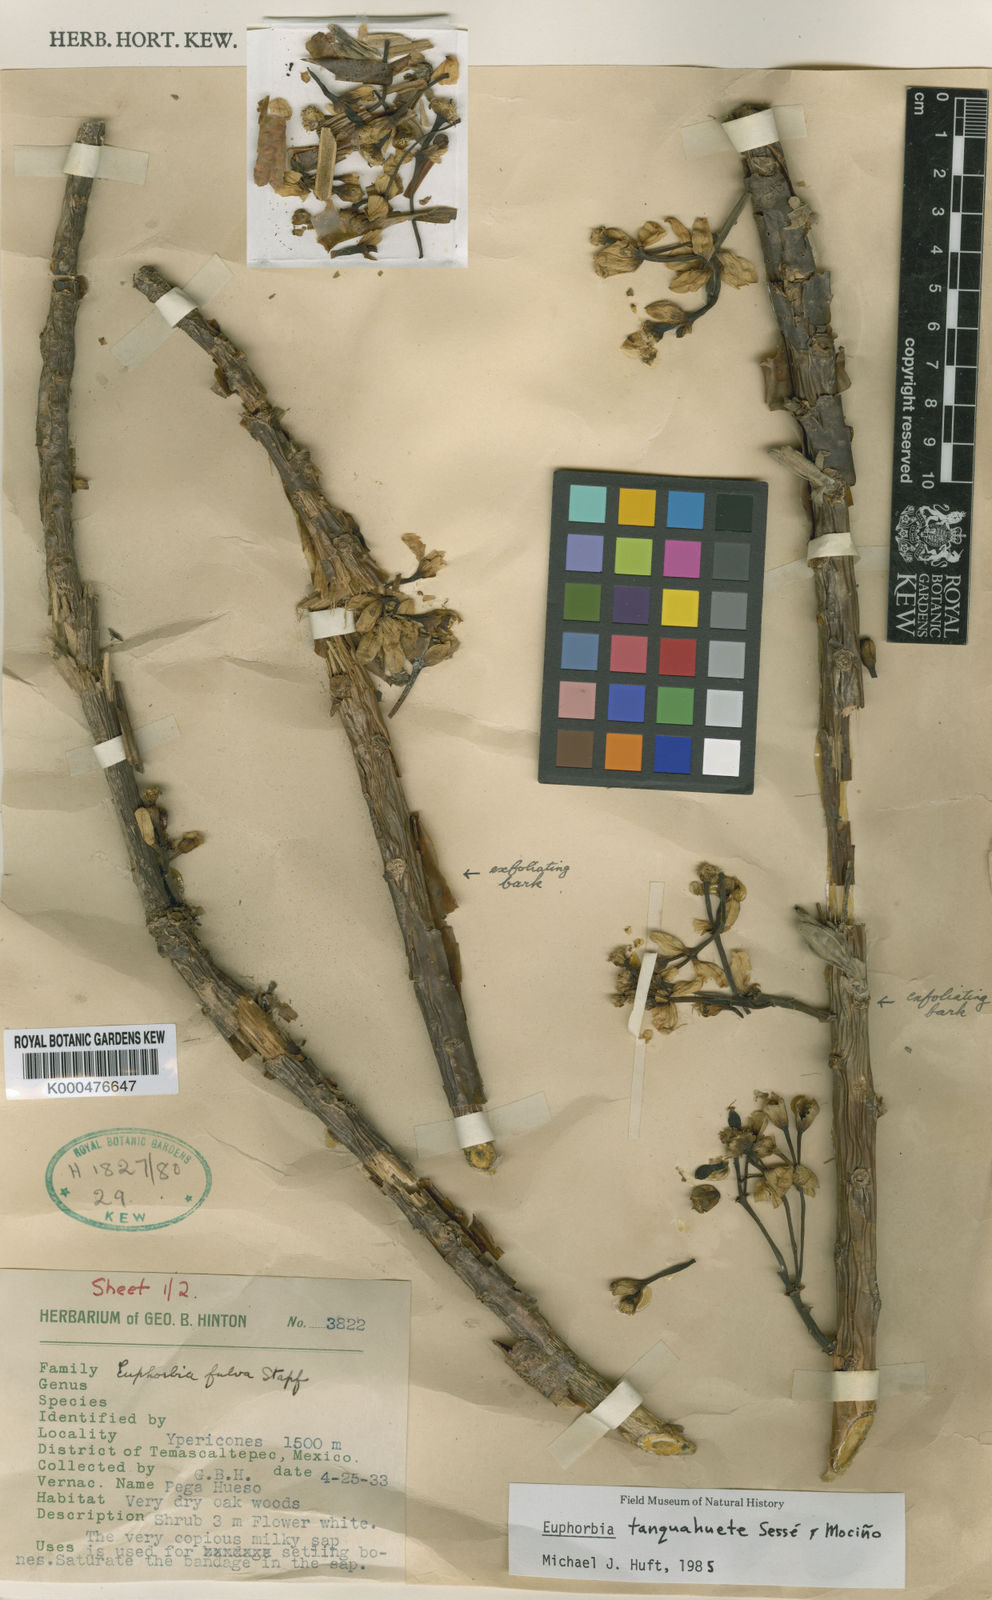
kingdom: Plantae
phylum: Tracheophyta
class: Magnoliopsida
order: Malpighiales
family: Euphorbiaceae
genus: Euphorbia
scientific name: Euphorbia
